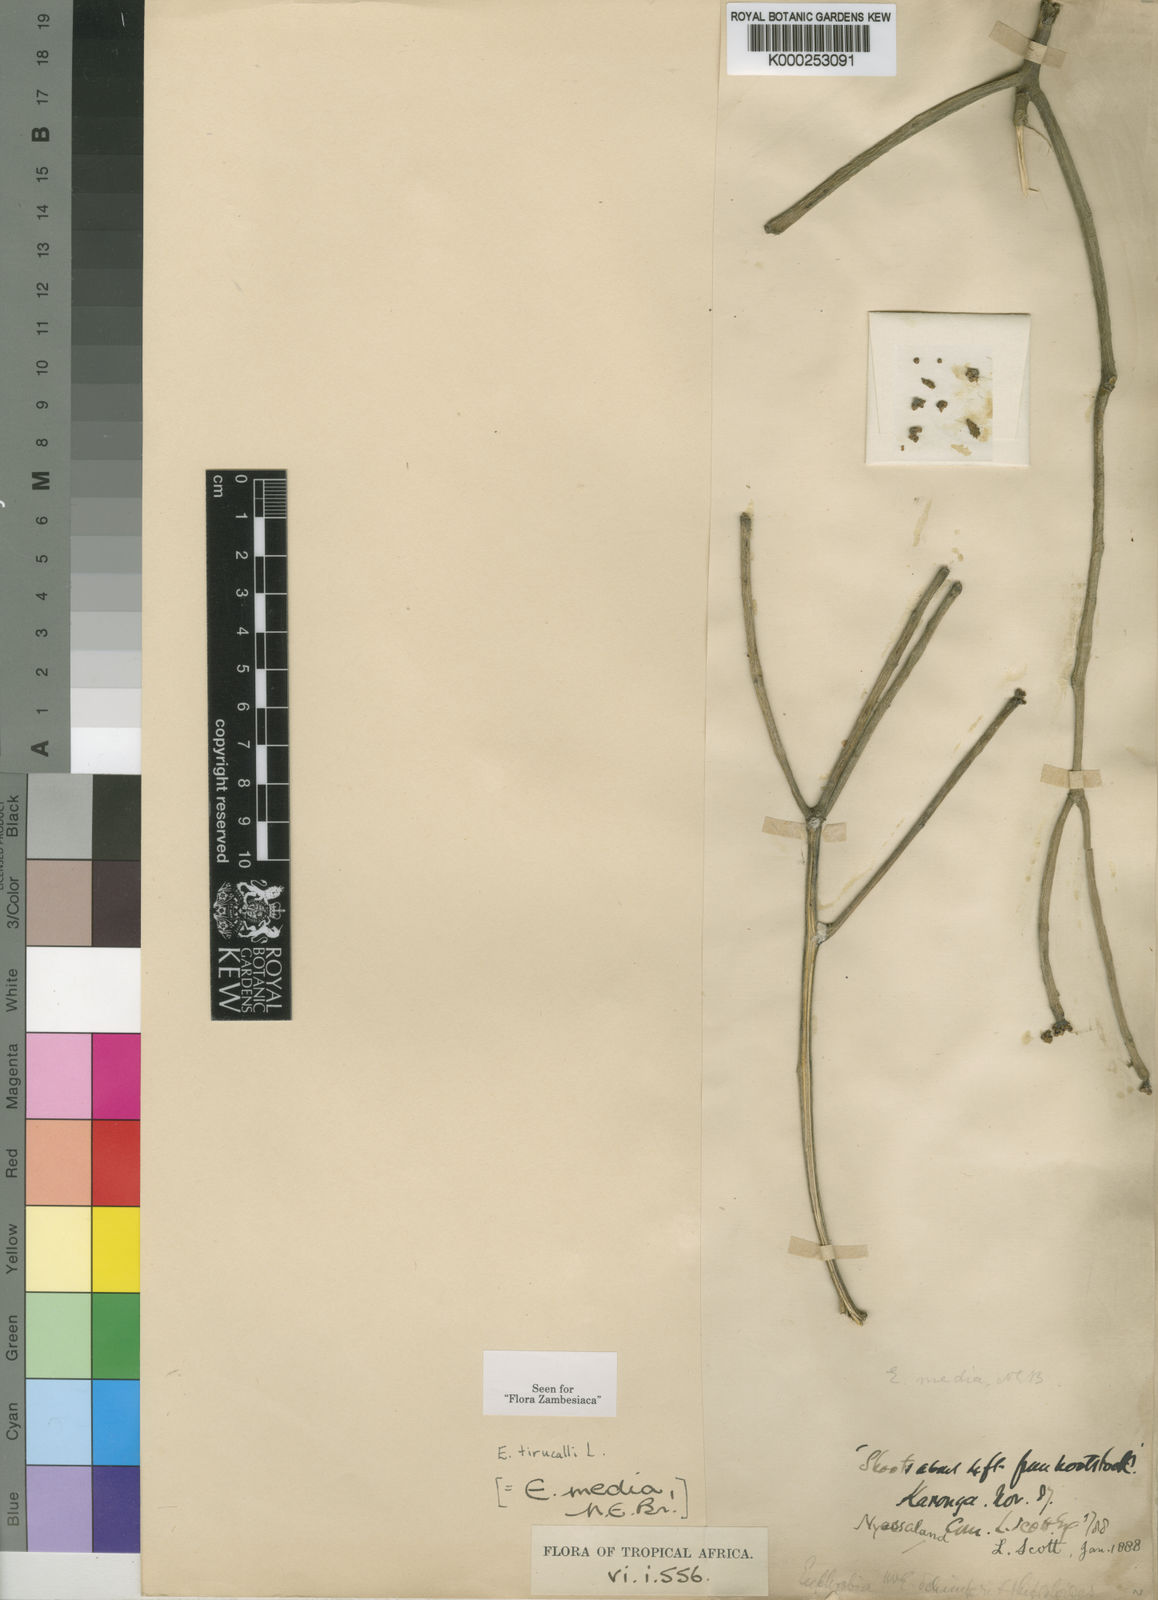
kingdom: Plantae
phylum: Tracheophyta
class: Magnoliopsida
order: Malpighiales
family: Euphorbiaceae
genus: Euphorbia
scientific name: Euphorbia tirucalli
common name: Indiantree spurge
